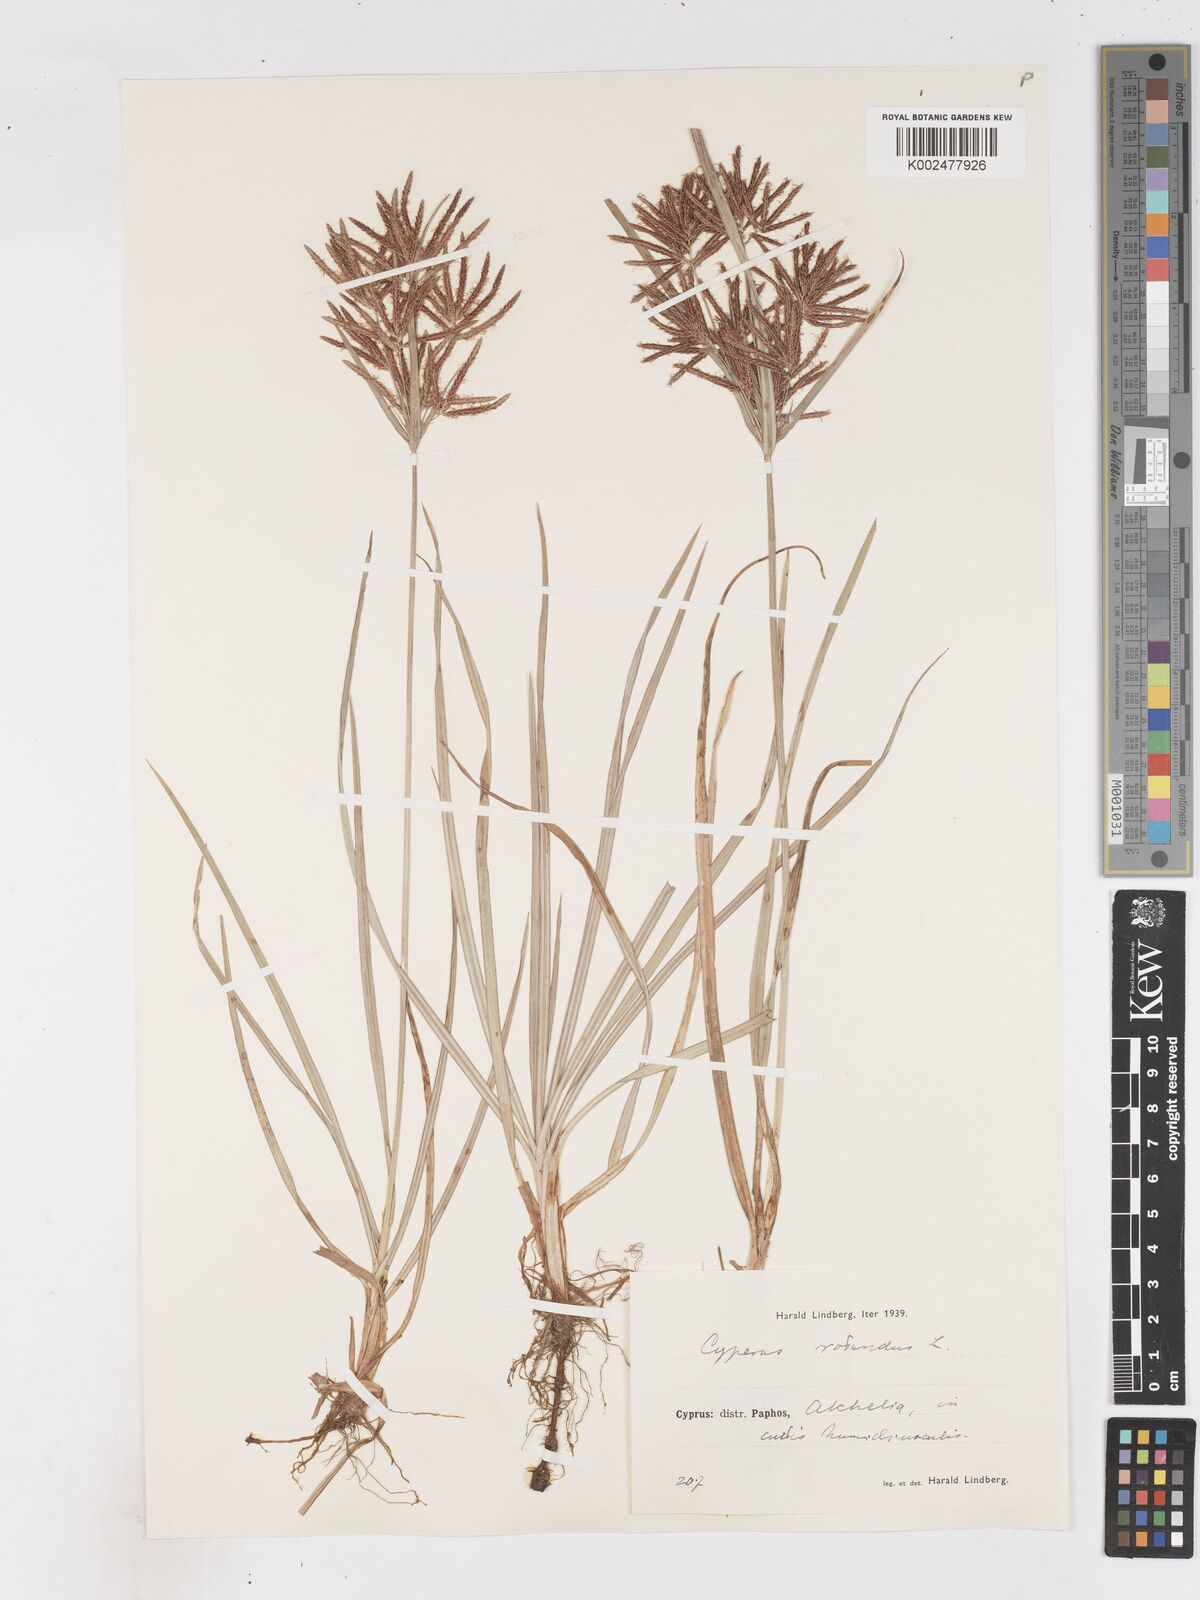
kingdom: Plantae
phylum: Tracheophyta
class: Liliopsida
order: Poales
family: Cyperaceae
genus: Cyperus
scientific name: Cyperus rotundus
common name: Nutgrass
